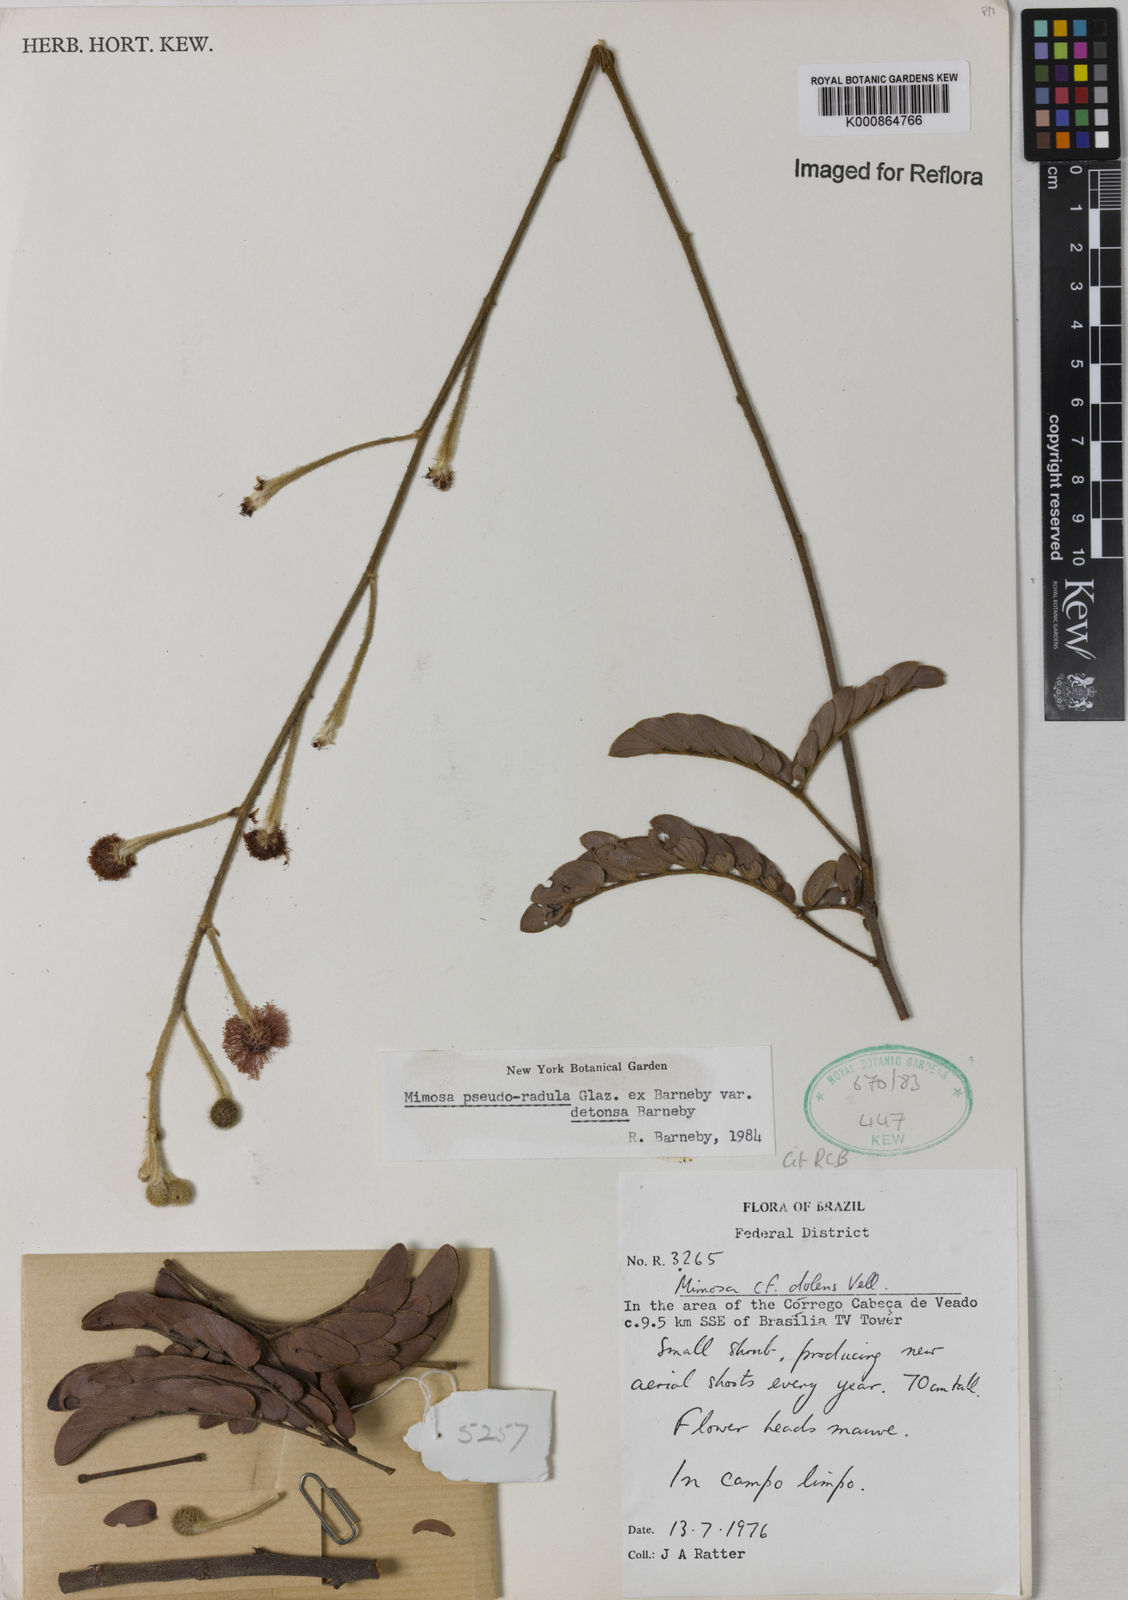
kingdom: Plantae
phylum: Tracheophyta
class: Magnoliopsida
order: Fabales
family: Fabaceae
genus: Mimosa
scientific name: Mimosa pseudoradula
